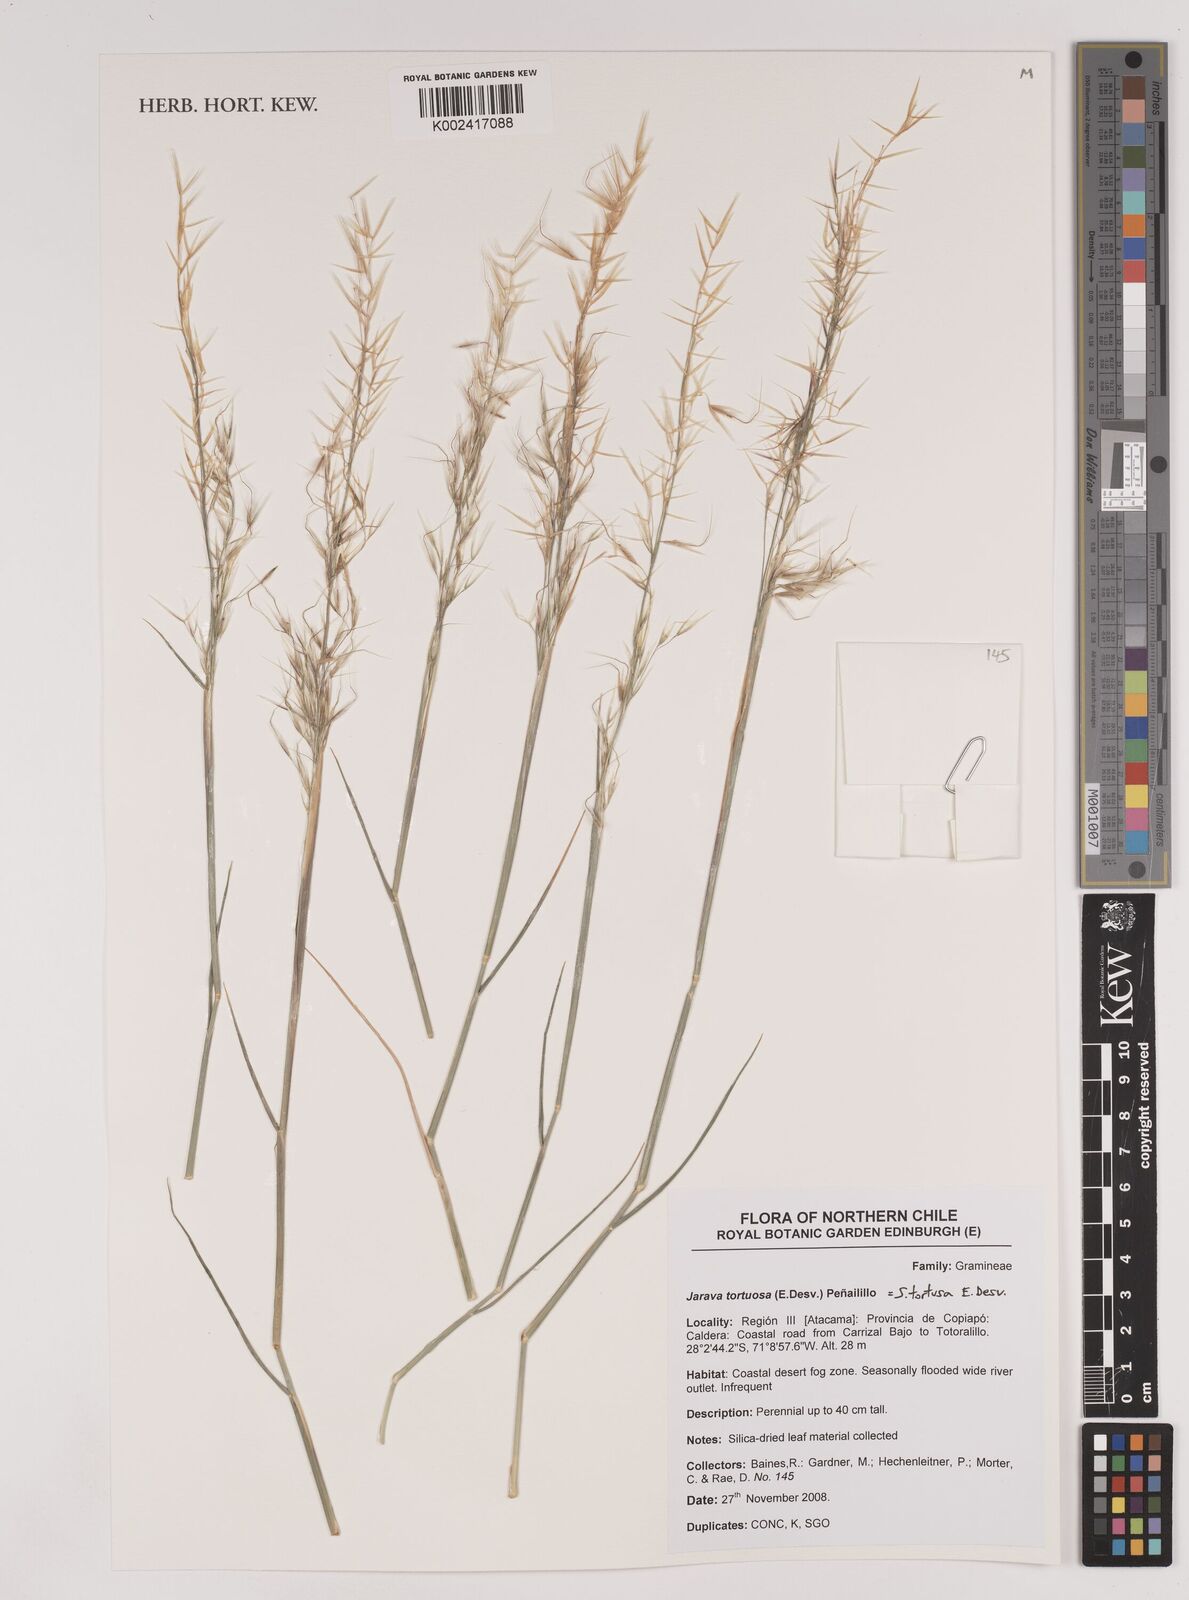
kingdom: Plantae
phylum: Tracheophyta
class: Liliopsida
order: Poales
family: Poaceae
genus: Pappostipa
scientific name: Pappostipa vaginata
